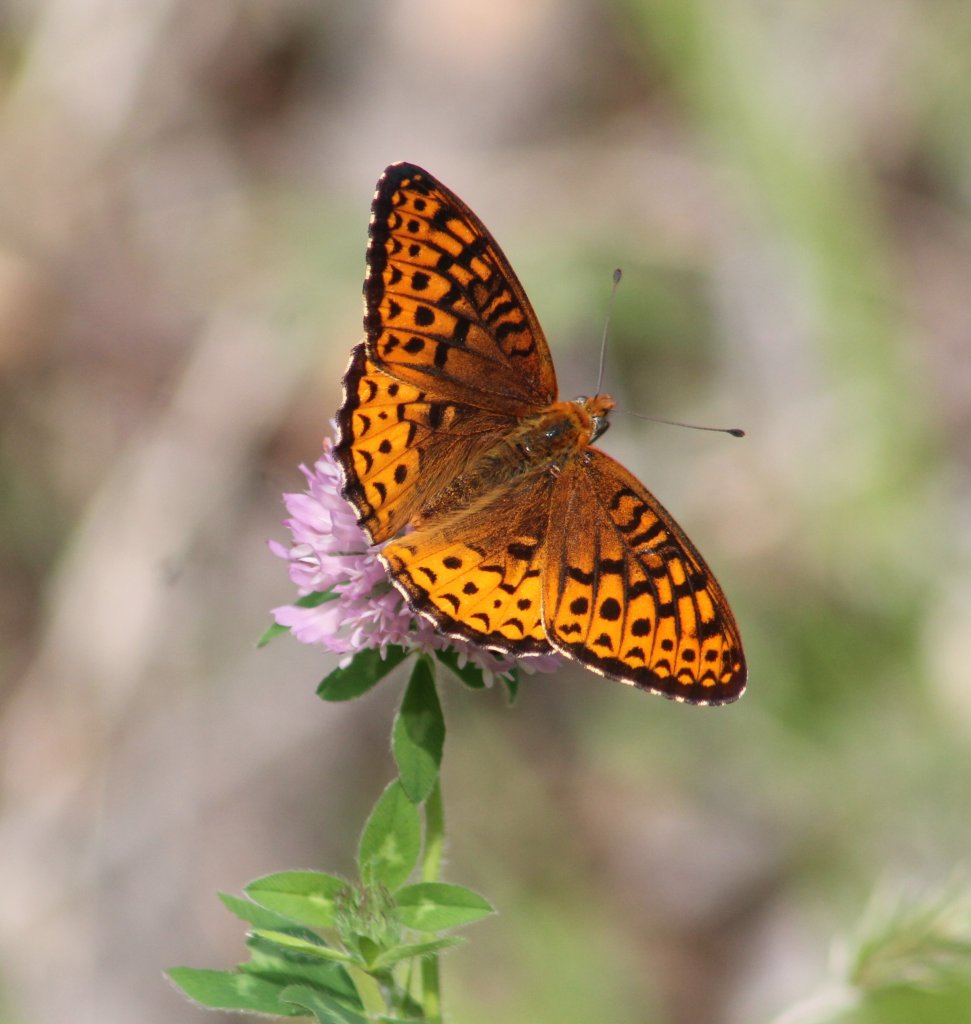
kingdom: Animalia
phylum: Arthropoda
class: Insecta
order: Lepidoptera
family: Nymphalidae
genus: Speyeria
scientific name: Speyeria atlantis
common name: Atlantis Fritillary
